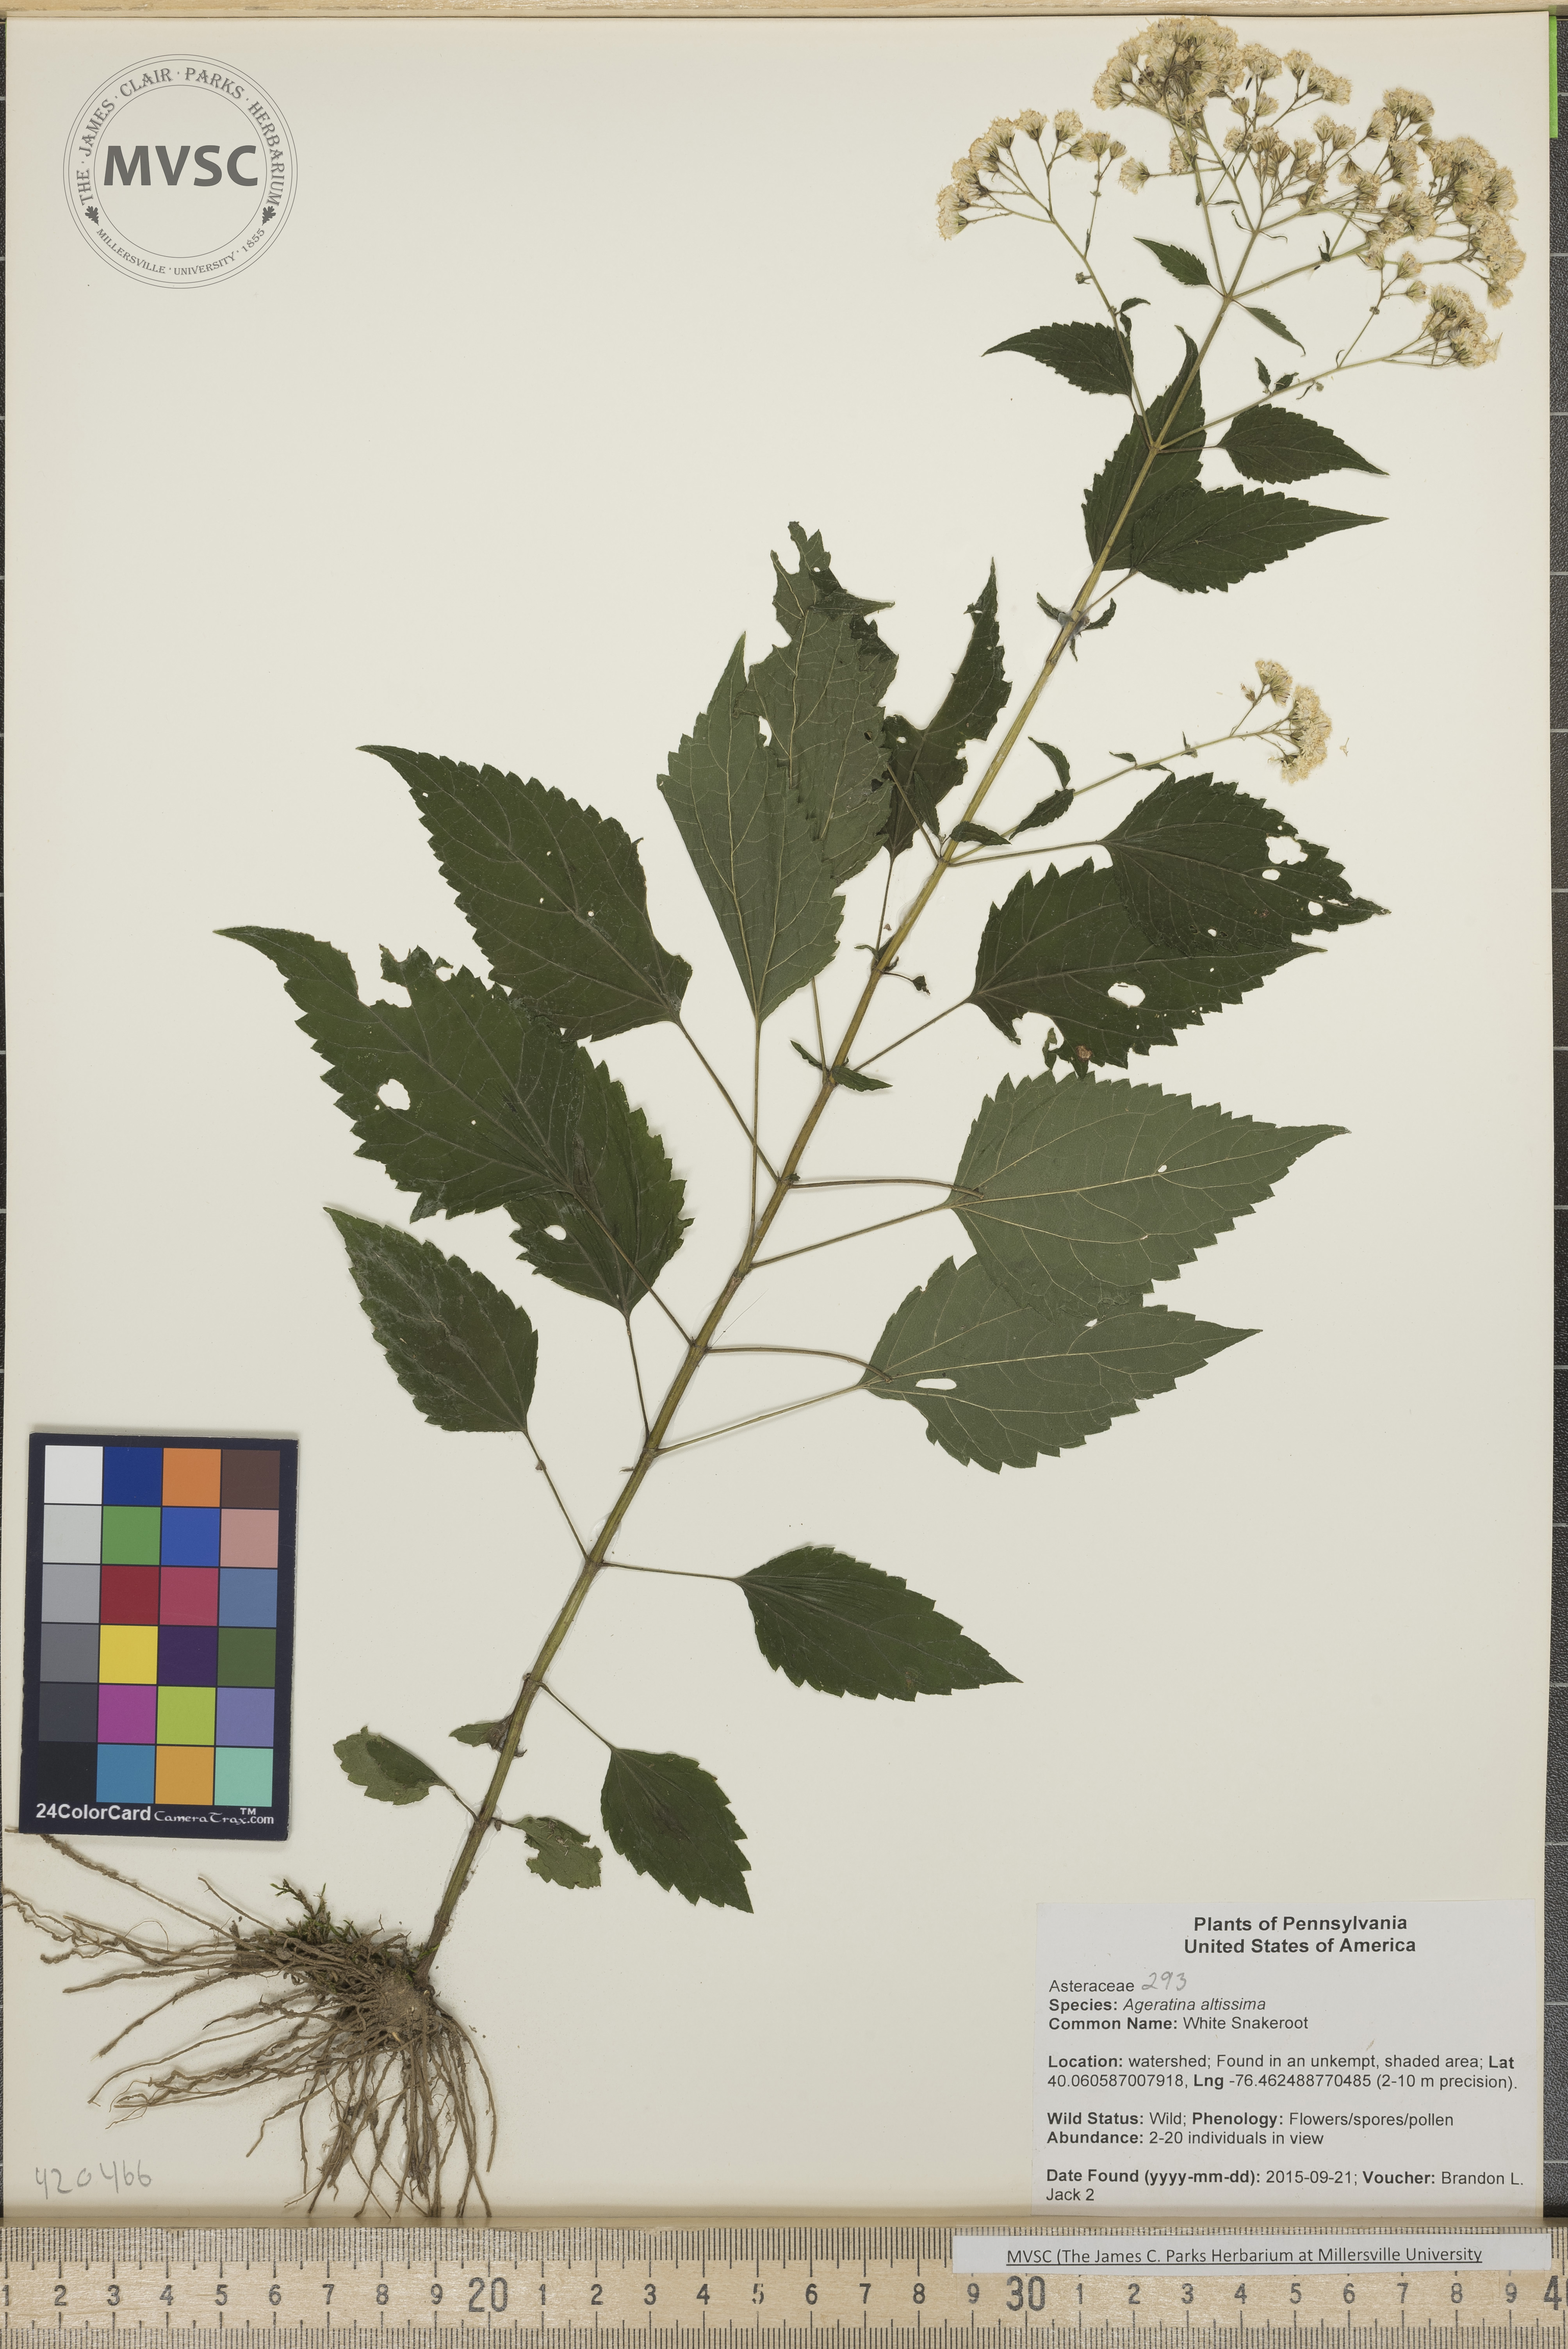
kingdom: Plantae
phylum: Tracheophyta
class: Magnoliopsida
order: Asterales
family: Asteraceae
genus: Ageratina
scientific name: Ageratina altissima
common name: White Snakeroot
